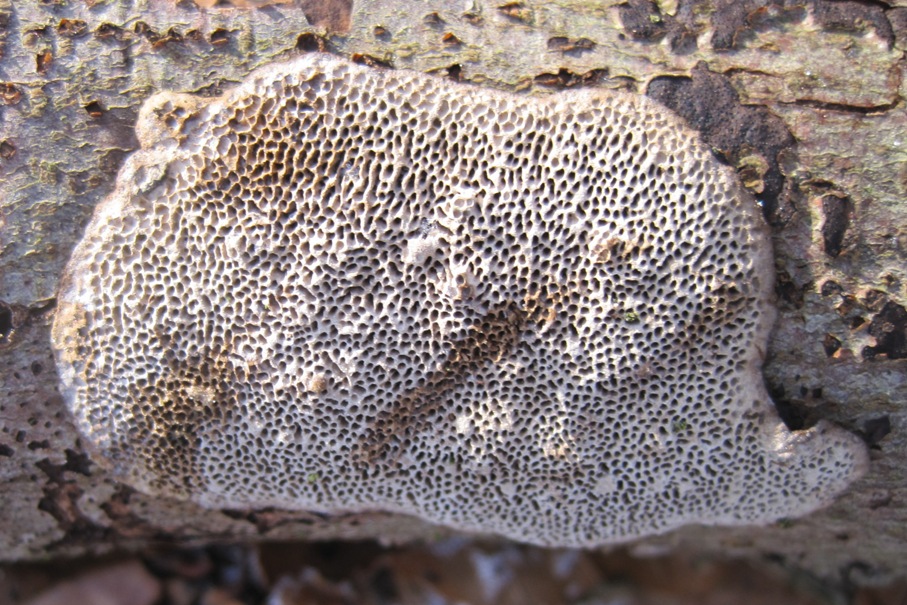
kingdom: Fungi
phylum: Basidiomycota
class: Agaricomycetes
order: Polyporales
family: Polyporaceae
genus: Podofomes
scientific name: Podofomes mollis
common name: blød begporesvamp
